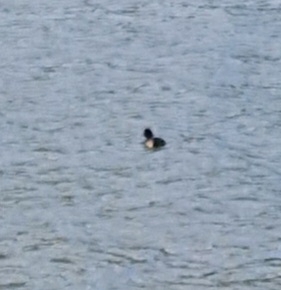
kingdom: Animalia
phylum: Chordata
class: Aves
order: Anseriformes
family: Anatidae
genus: Aythya
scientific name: Aythya fuligula
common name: Troldand
